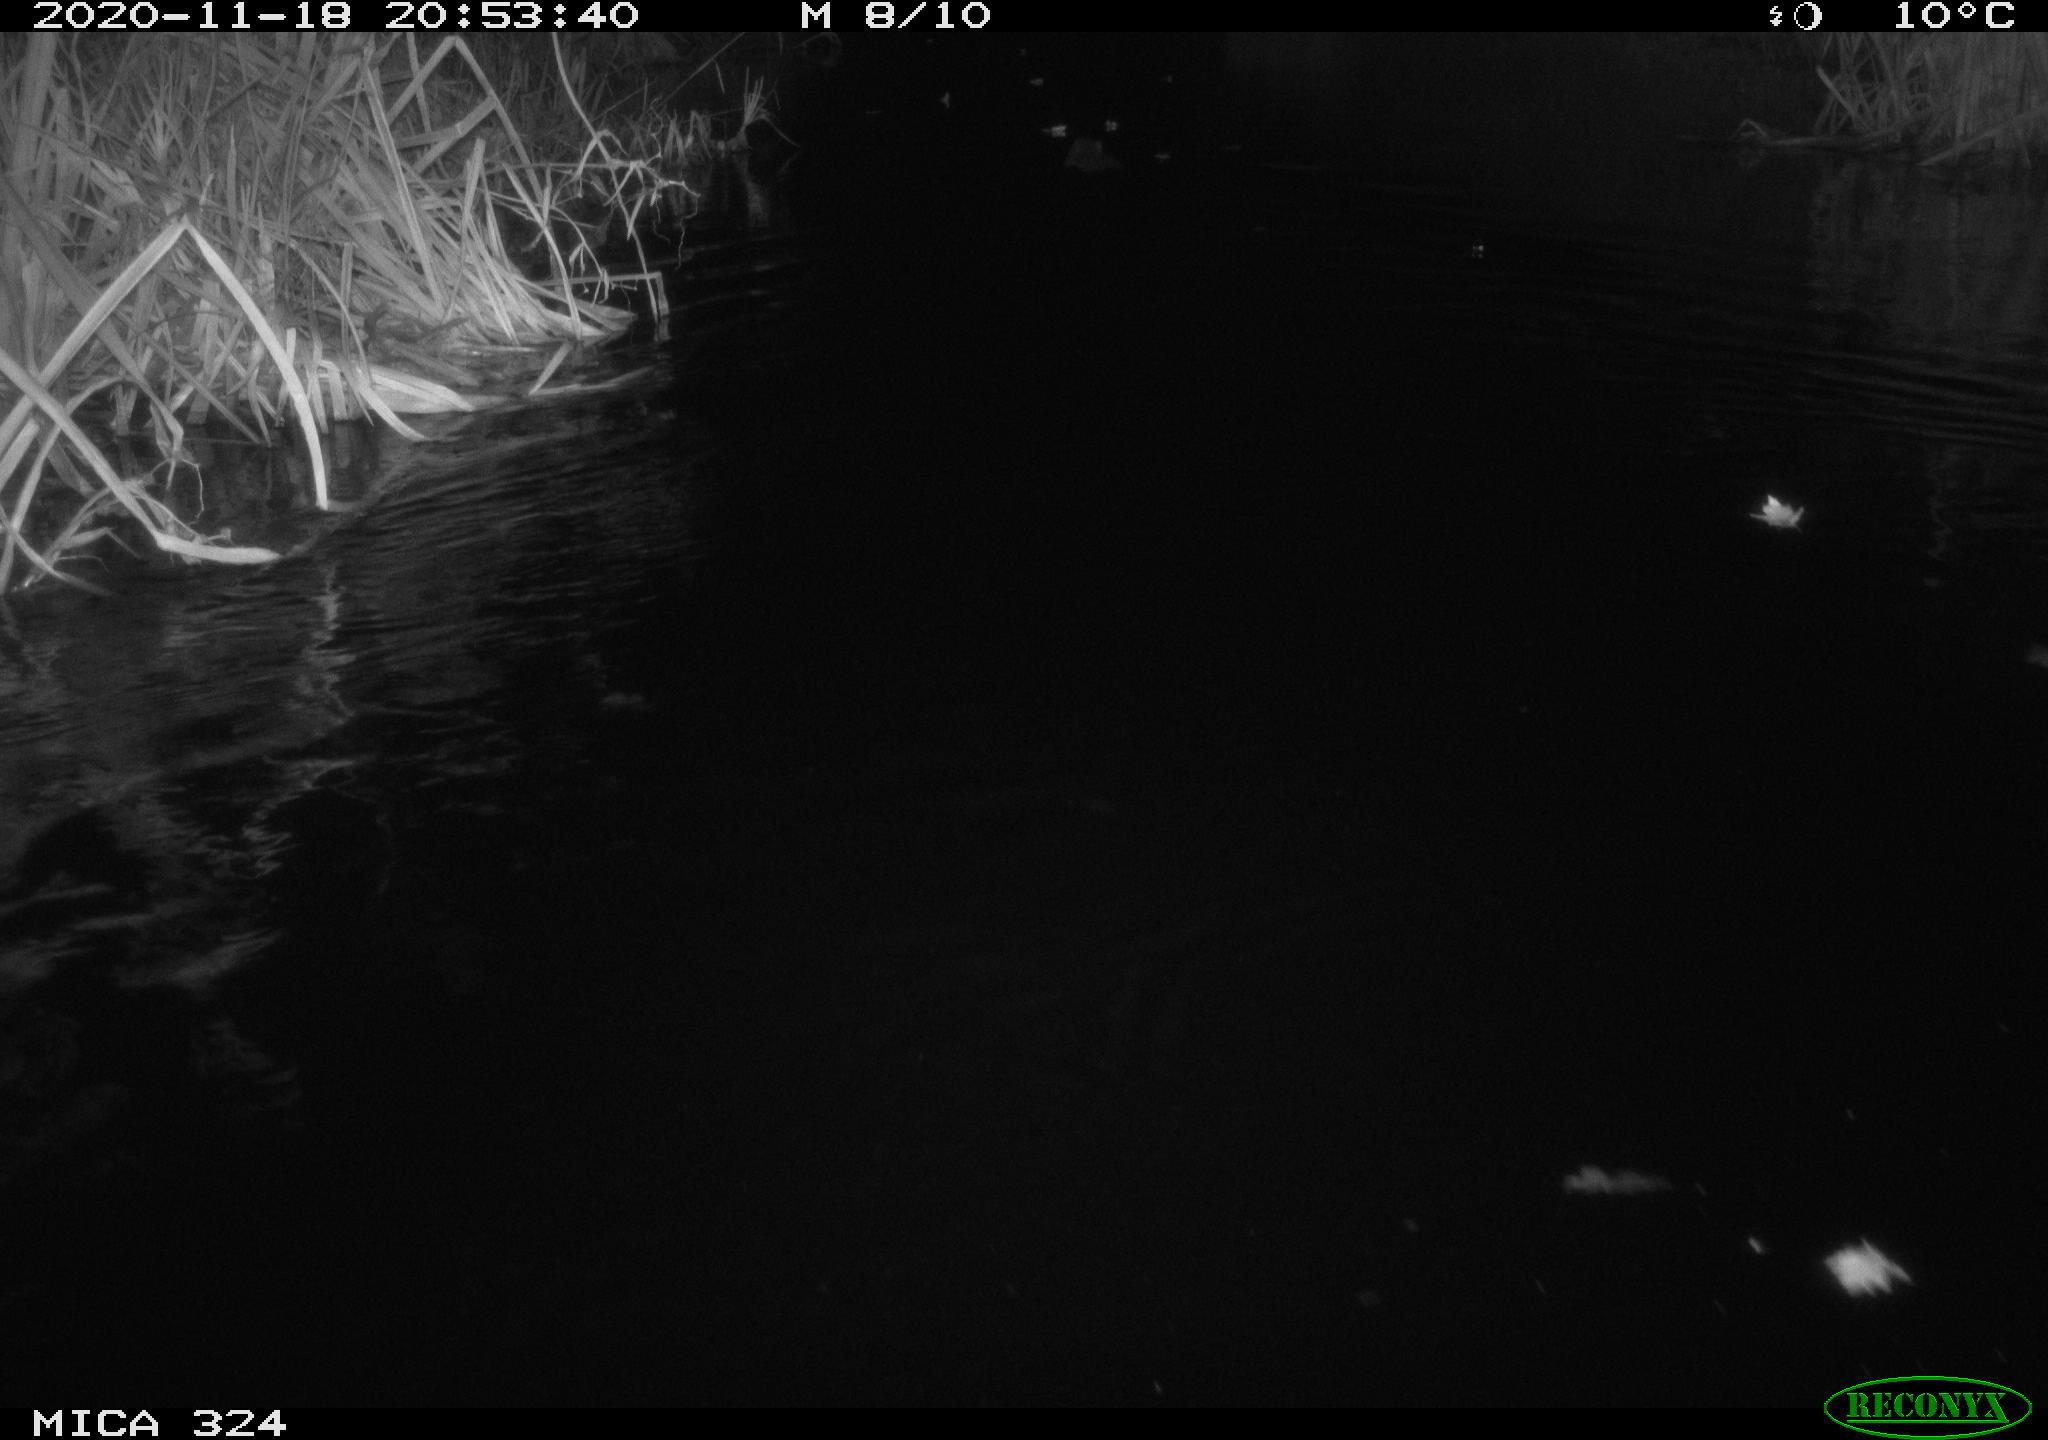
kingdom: Animalia
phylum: Chordata
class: Mammalia
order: Rodentia
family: Myocastoridae
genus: Myocastor
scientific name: Myocastor coypus
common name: Coypu
